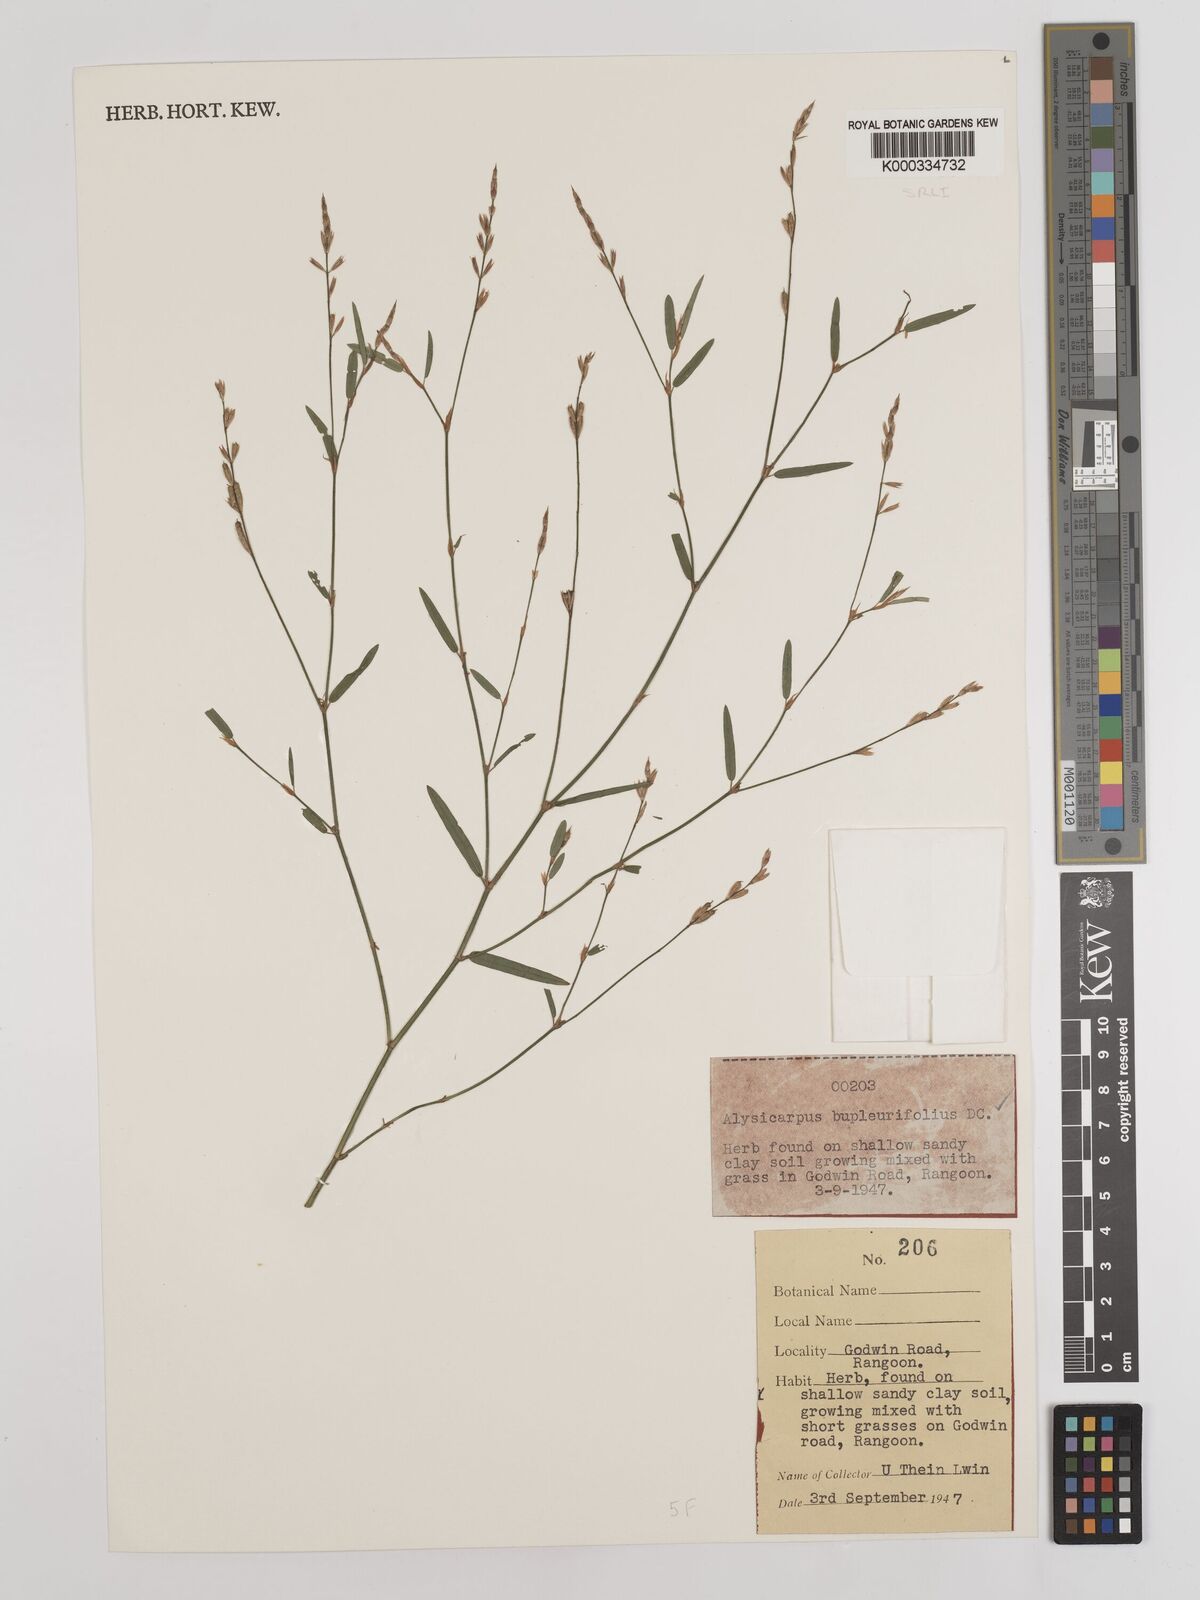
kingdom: Plantae
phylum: Tracheophyta
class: Magnoliopsida
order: Fabales
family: Fabaceae
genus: Alysicarpus
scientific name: Alysicarpus bupleurifolius
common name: Sweet alys
